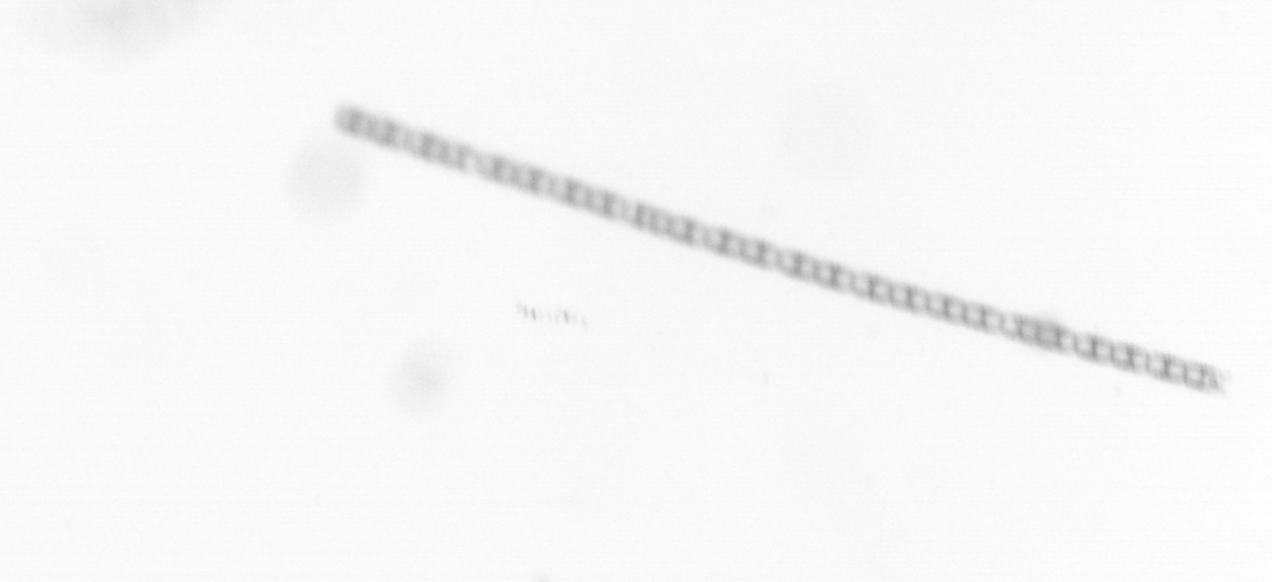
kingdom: Chromista
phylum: Ochrophyta
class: Bacillariophyceae
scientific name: Bacillariophyceae
